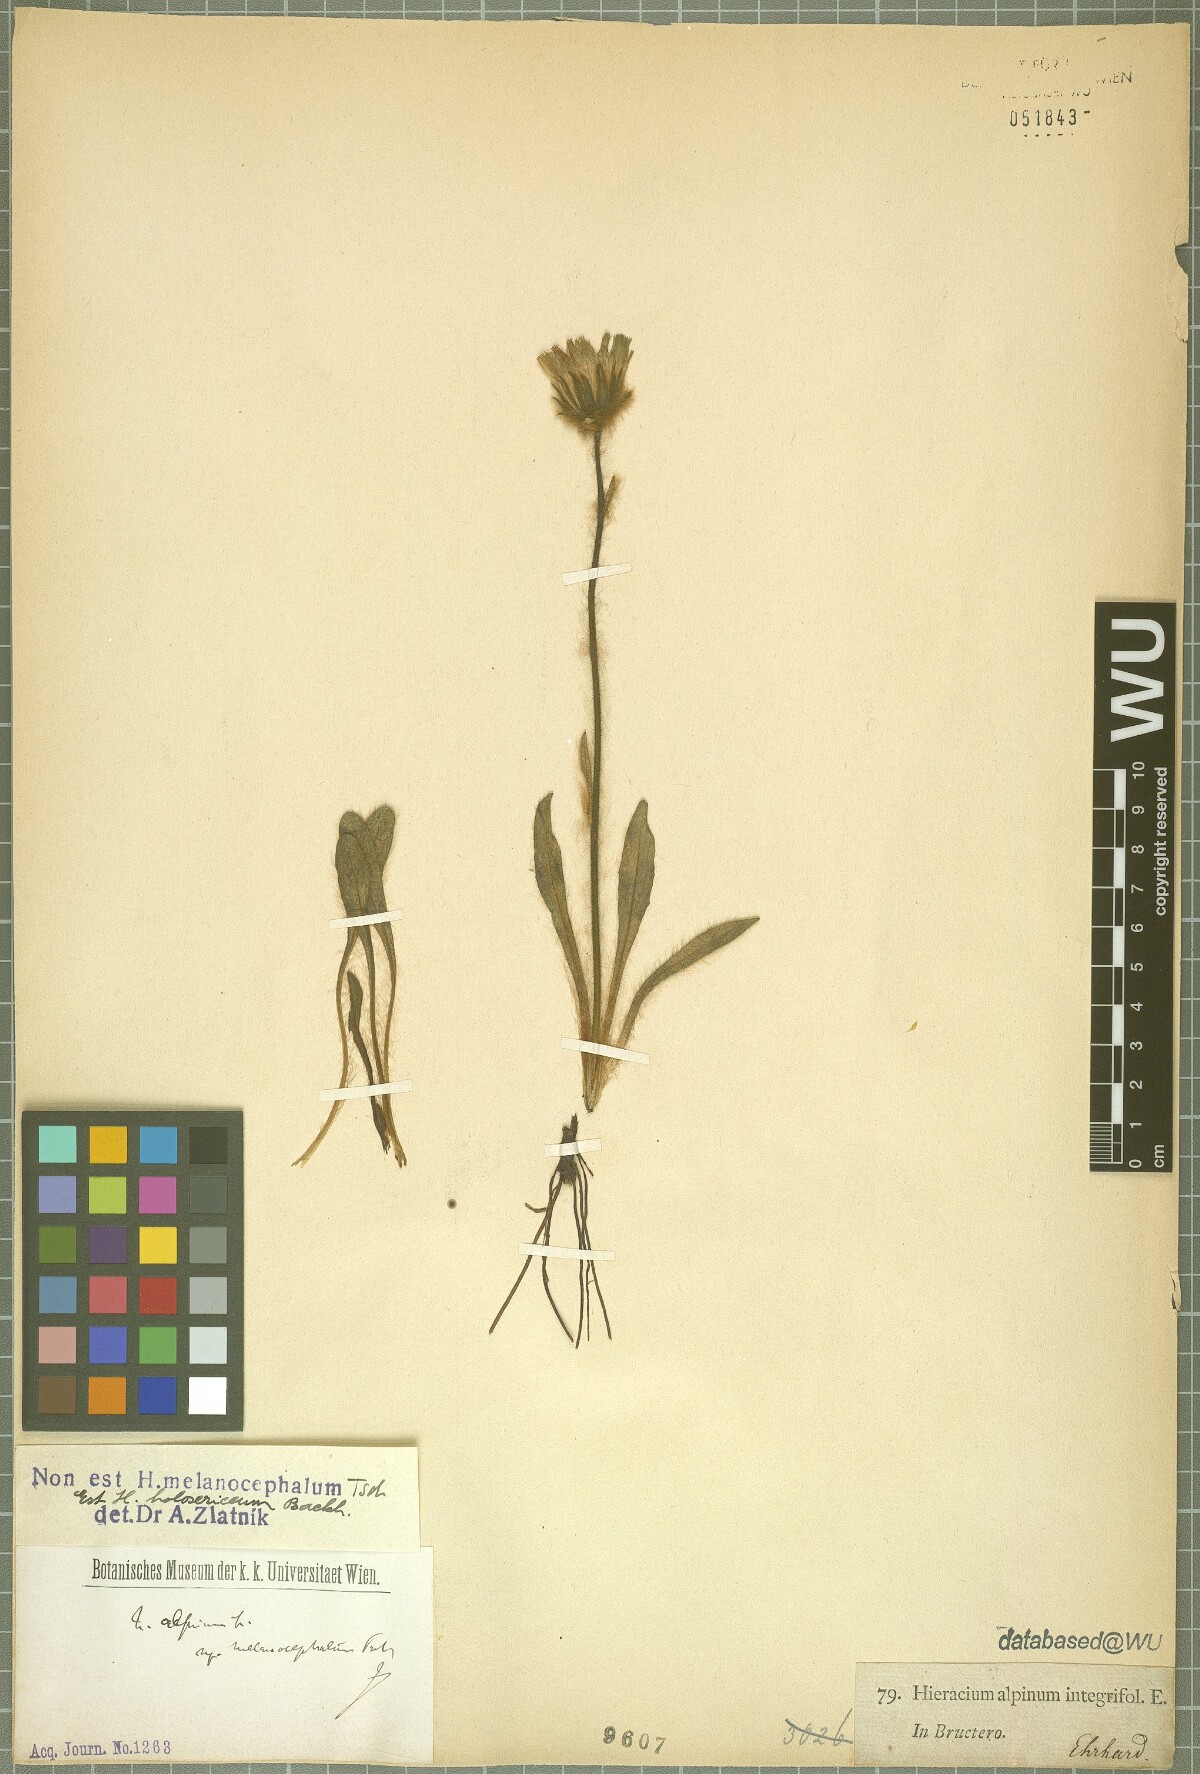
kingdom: Plantae
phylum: Tracheophyta
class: Magnoliopsida
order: Asterales
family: Asteraceae
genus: Hieracium
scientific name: Hieracium holosericeum
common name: Shaggy hawkweed
